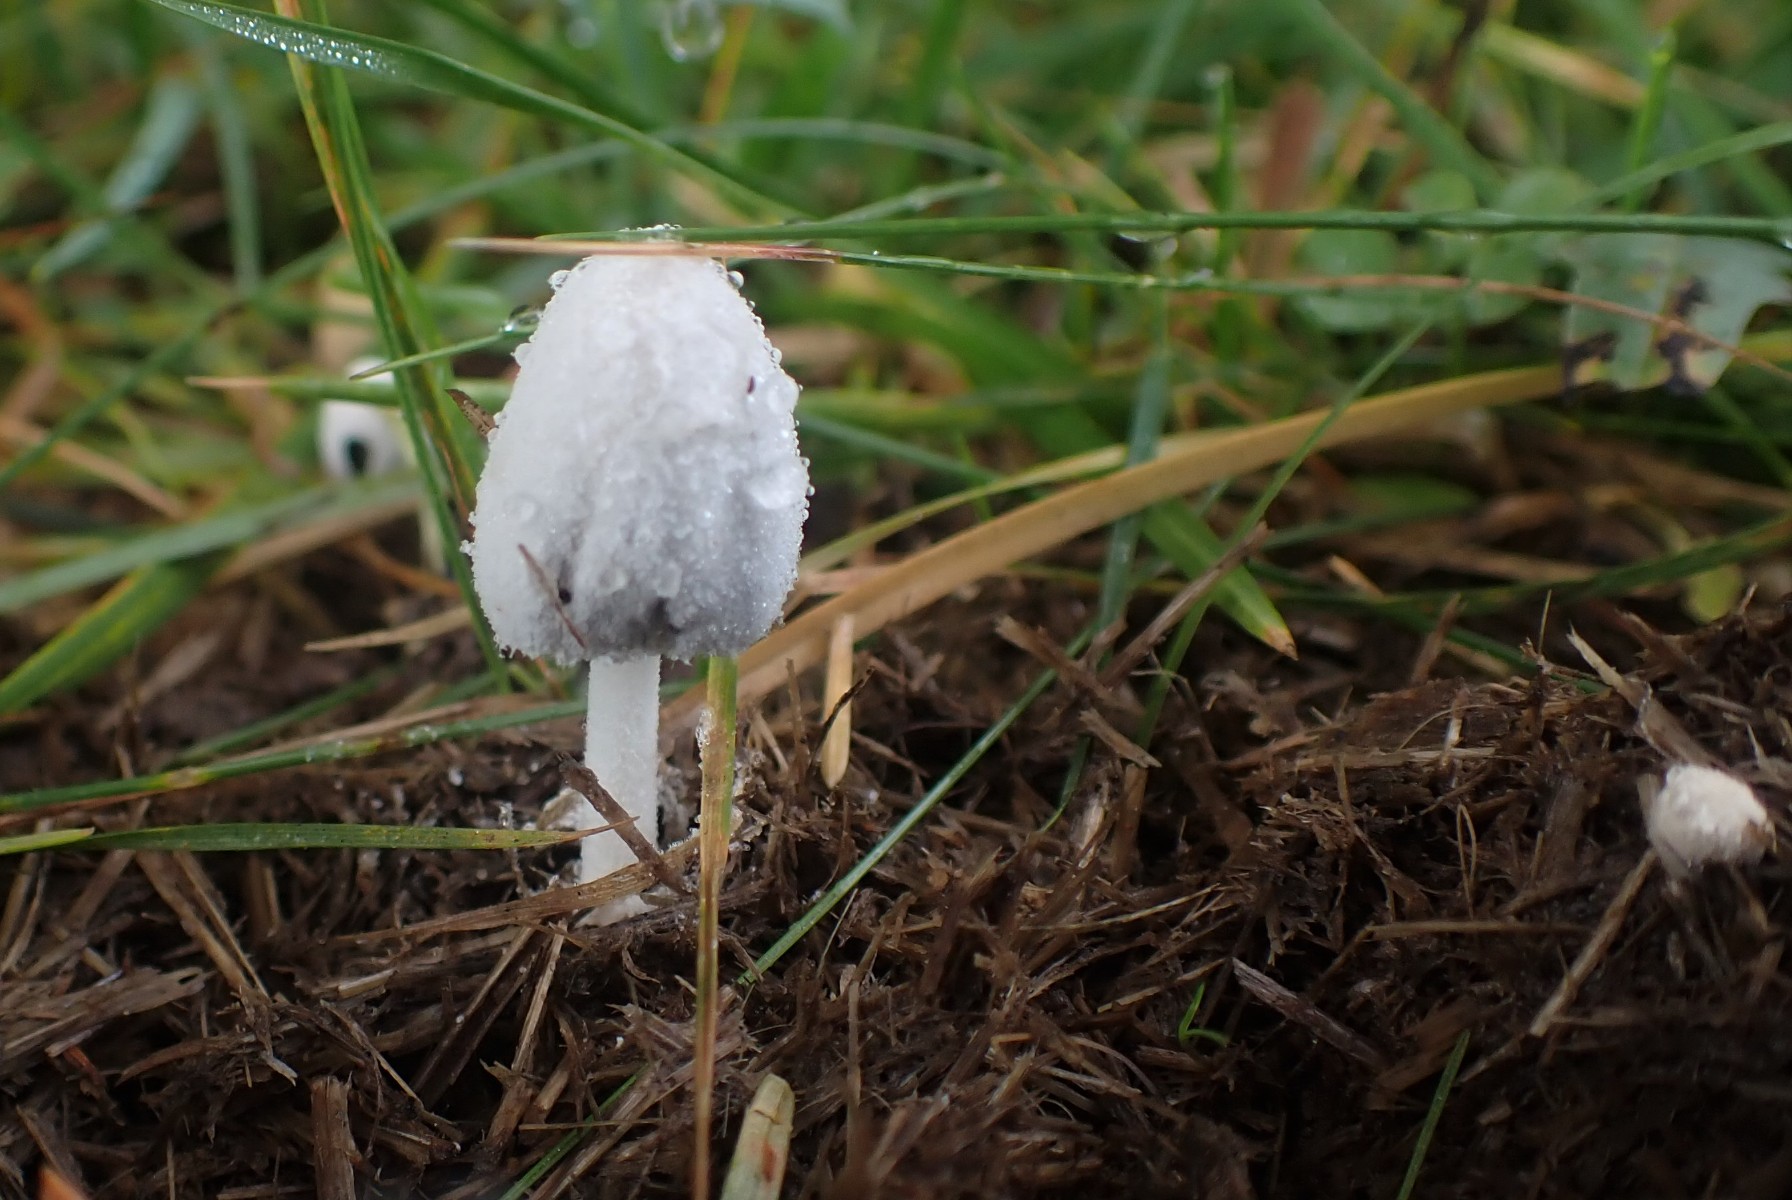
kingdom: Fungi
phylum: Basidiomycota
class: Agaricomycetes
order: Agaricales
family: Psathyrellaceae
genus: Coprinopsis
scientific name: Coprinopsis nivea
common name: snehvid blækhat
